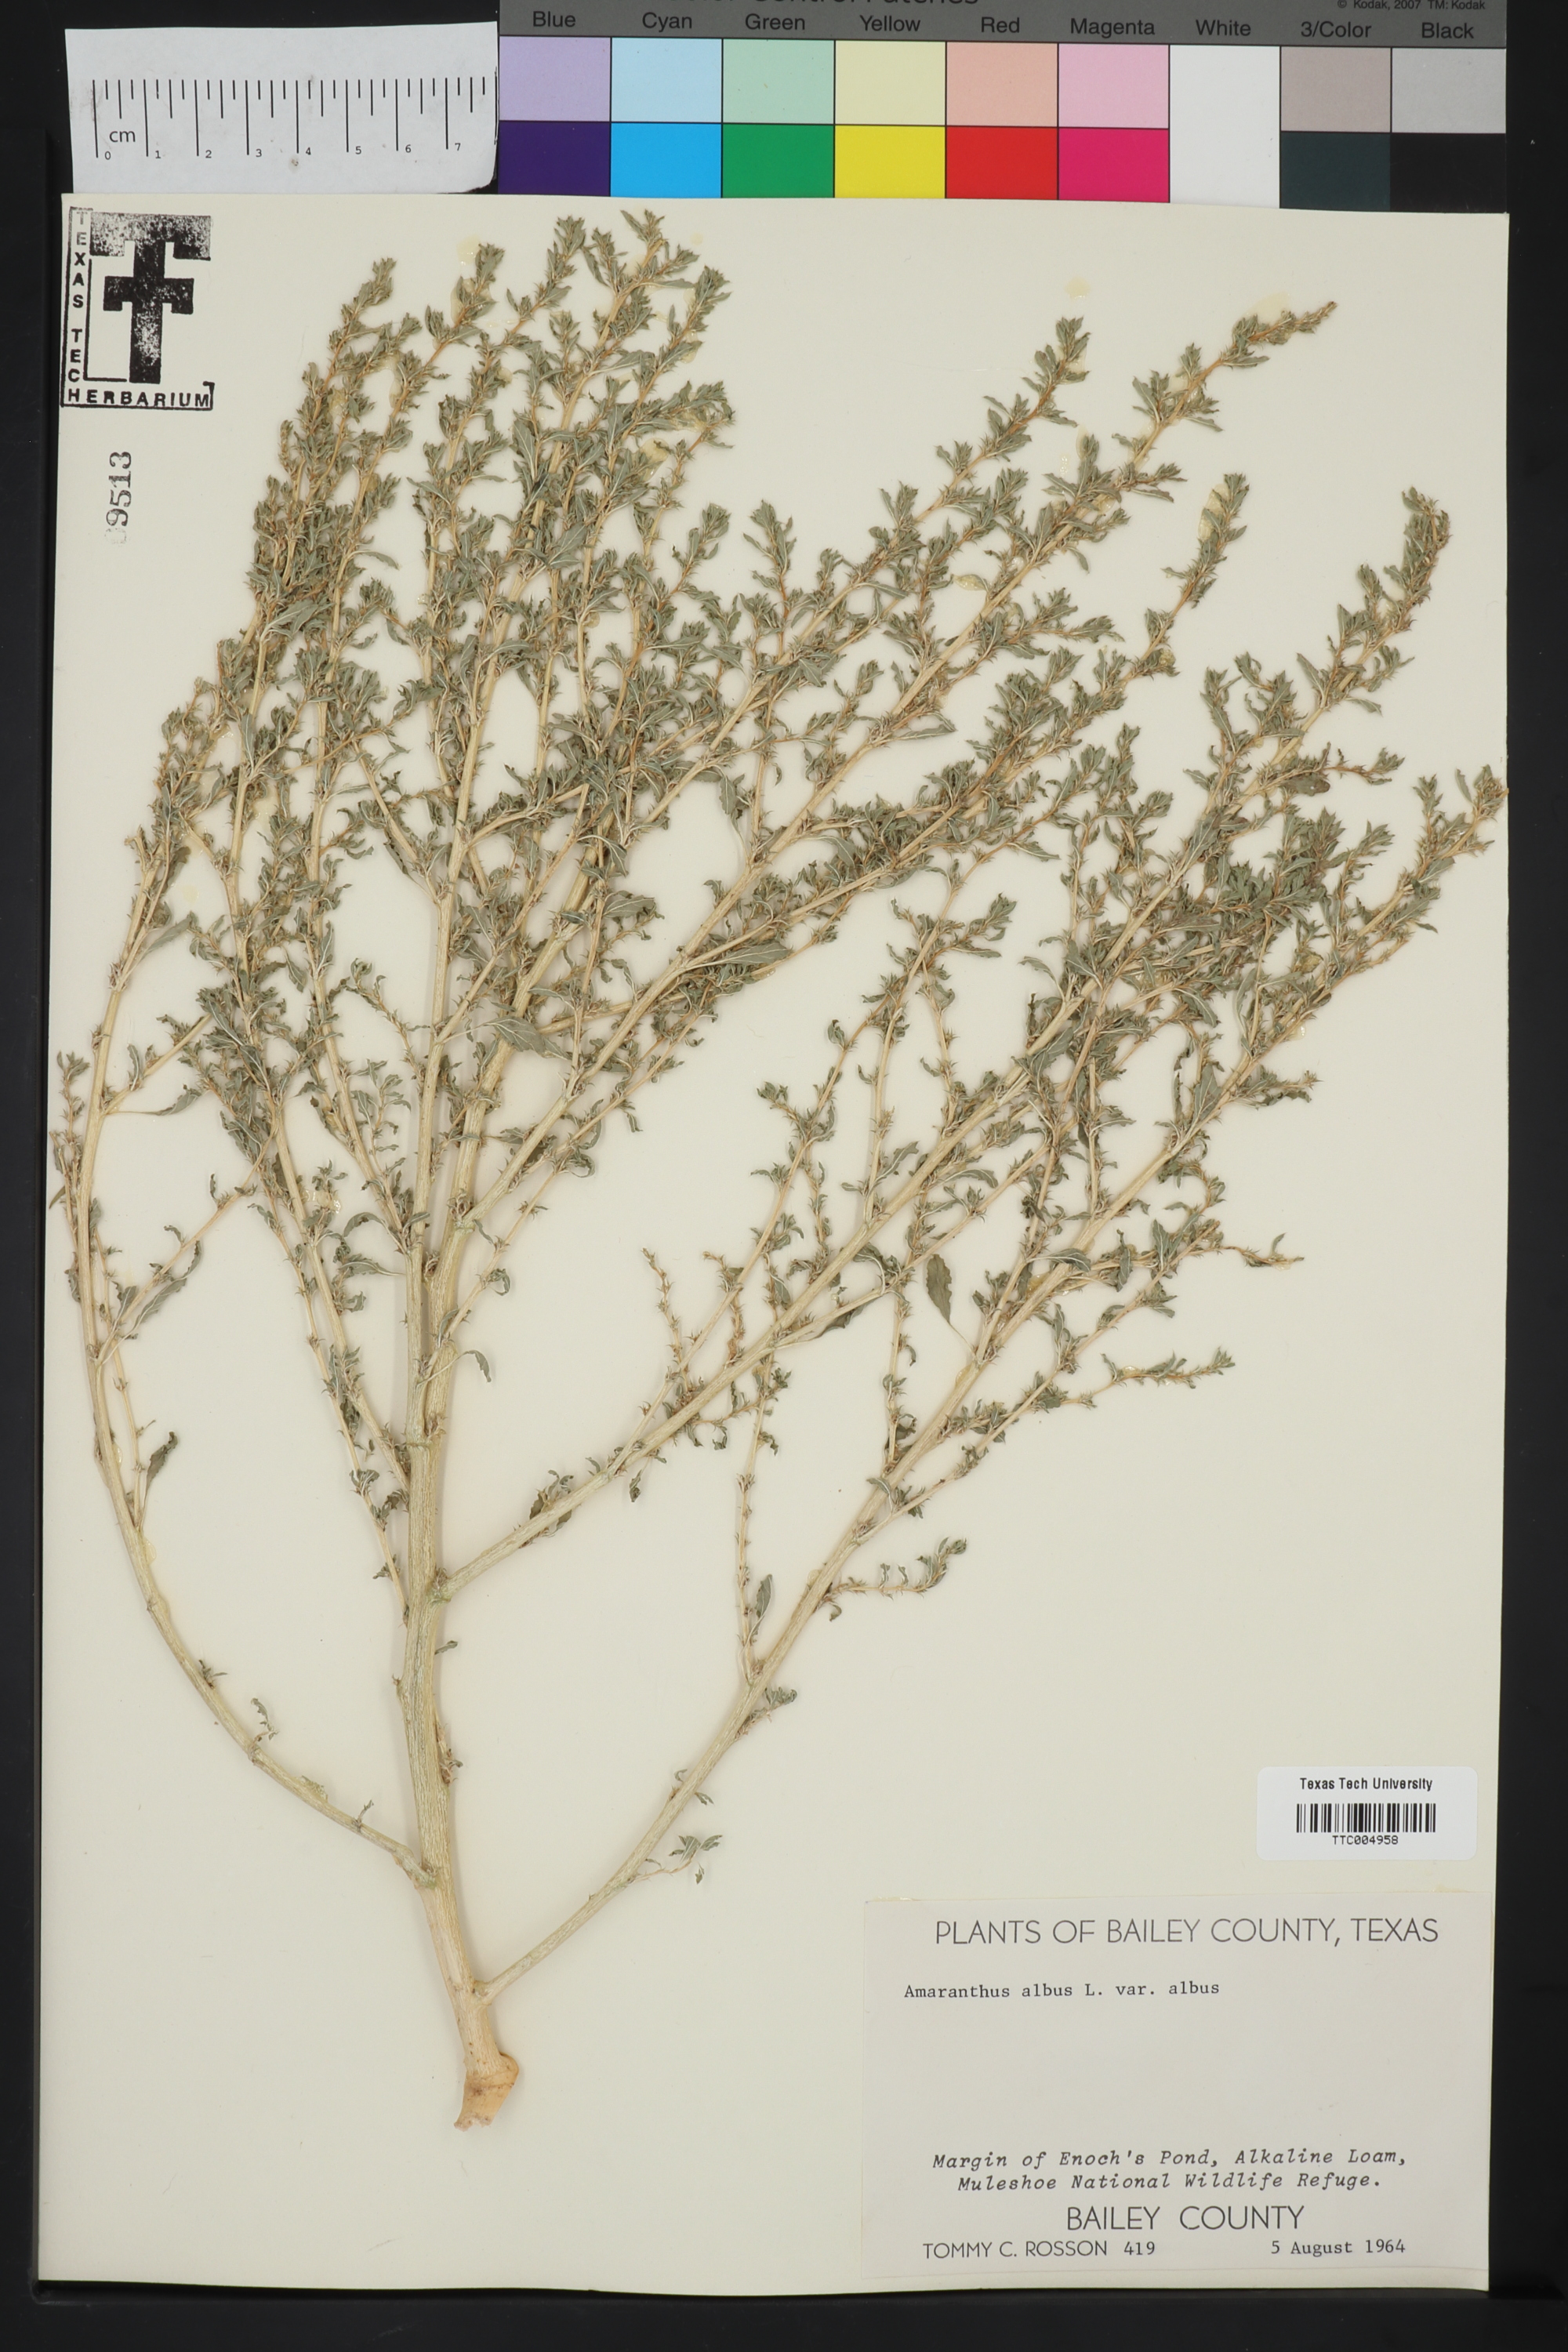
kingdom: Plantae
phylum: Tracheophyta
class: Magnoliopsida
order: Caryophyllales
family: Amaranthaceae
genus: Amaranthus
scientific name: Amaranthus albus
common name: White pigweed
